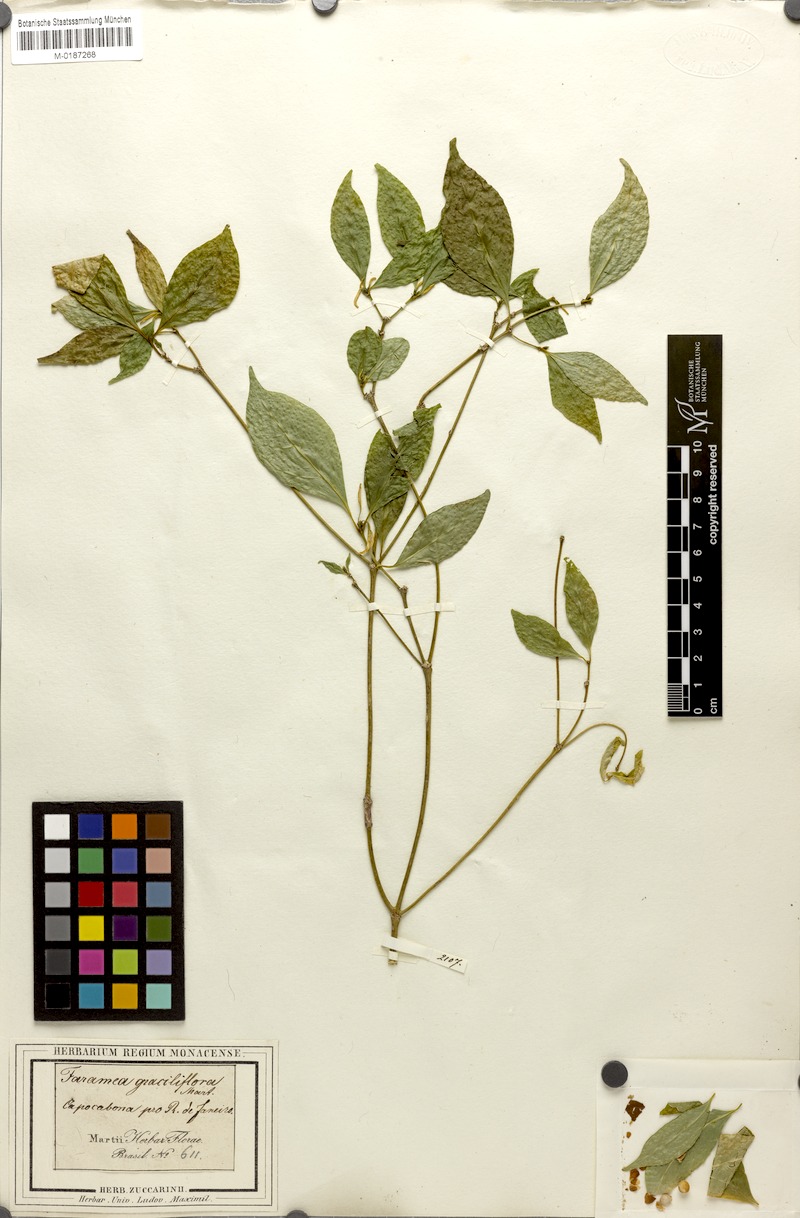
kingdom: Plantae
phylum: Tracheophyta
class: Magnoliopsida
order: Gentianales
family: Rubiaceae
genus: Coussarea
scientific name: Coussarea graciliflora
